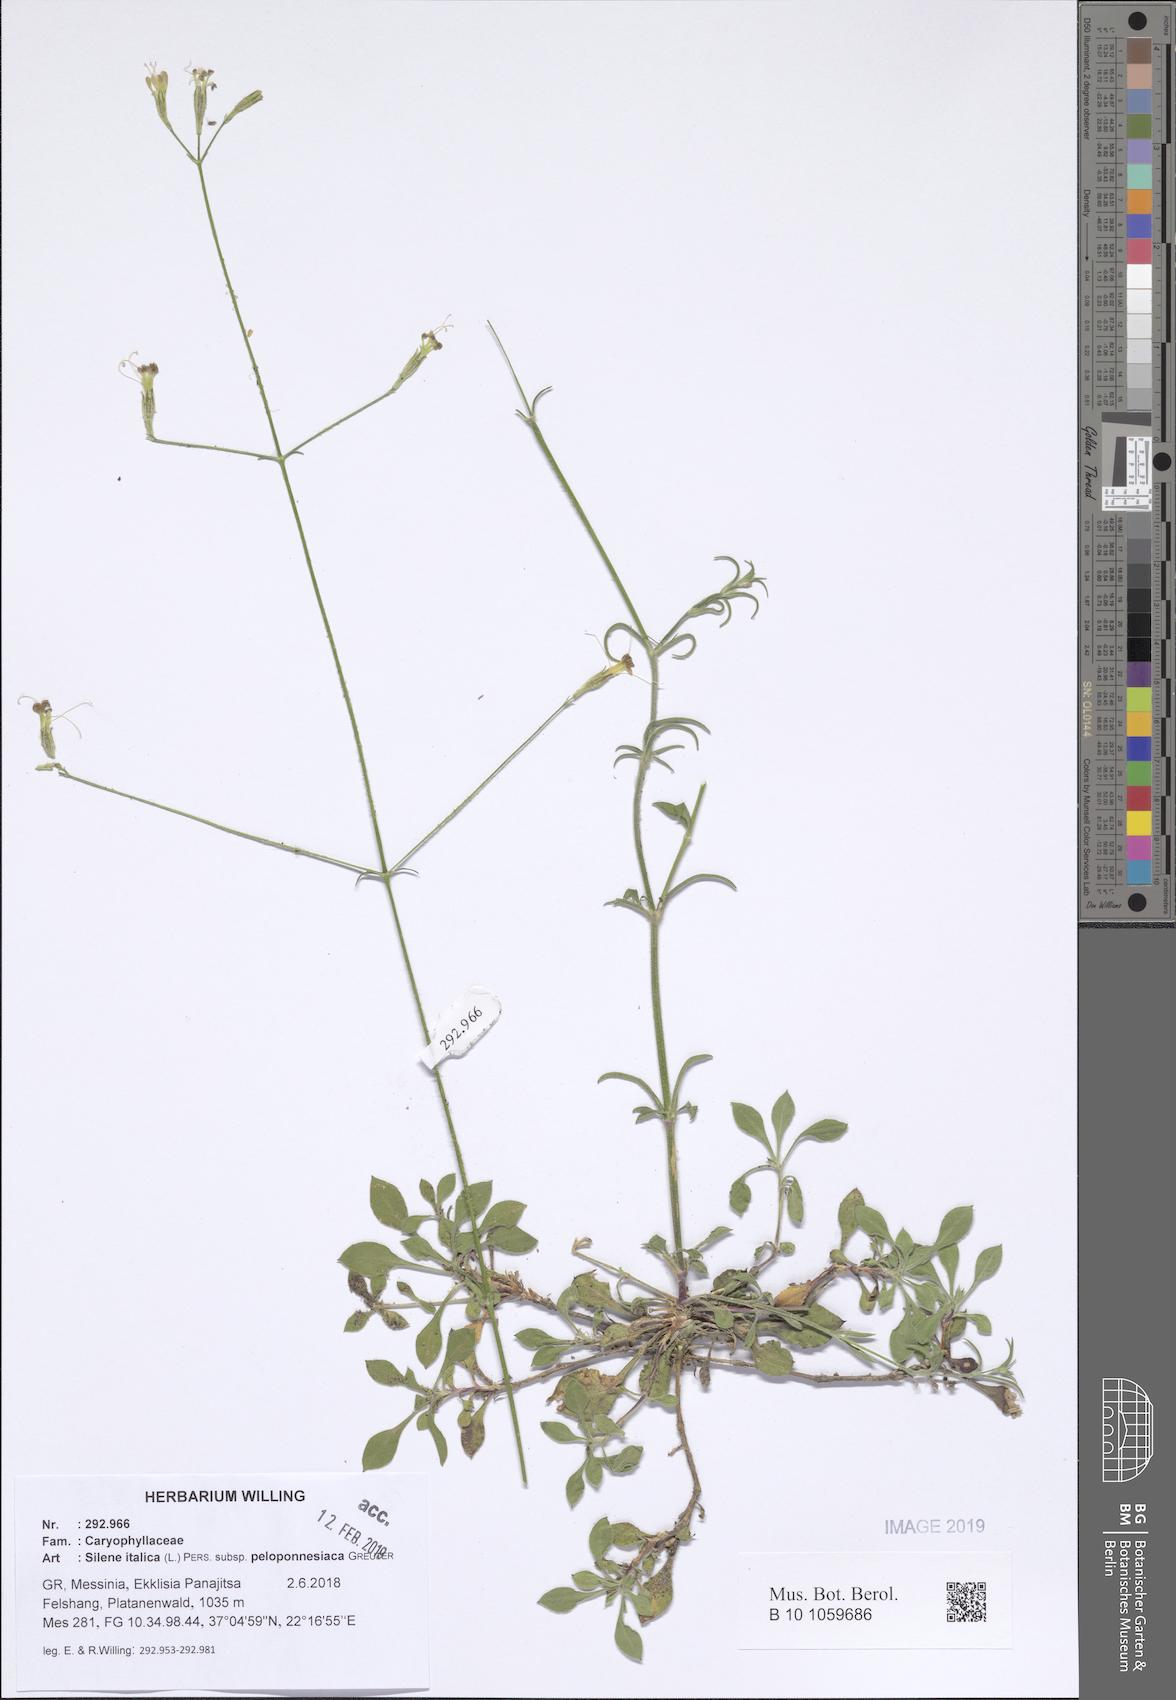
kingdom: Plantae
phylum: Tracheophyta
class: Magnoliopsida
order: Caryophyllales
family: Caryophyllaceae
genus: Silene
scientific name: Silene italica
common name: Italian catchfly
